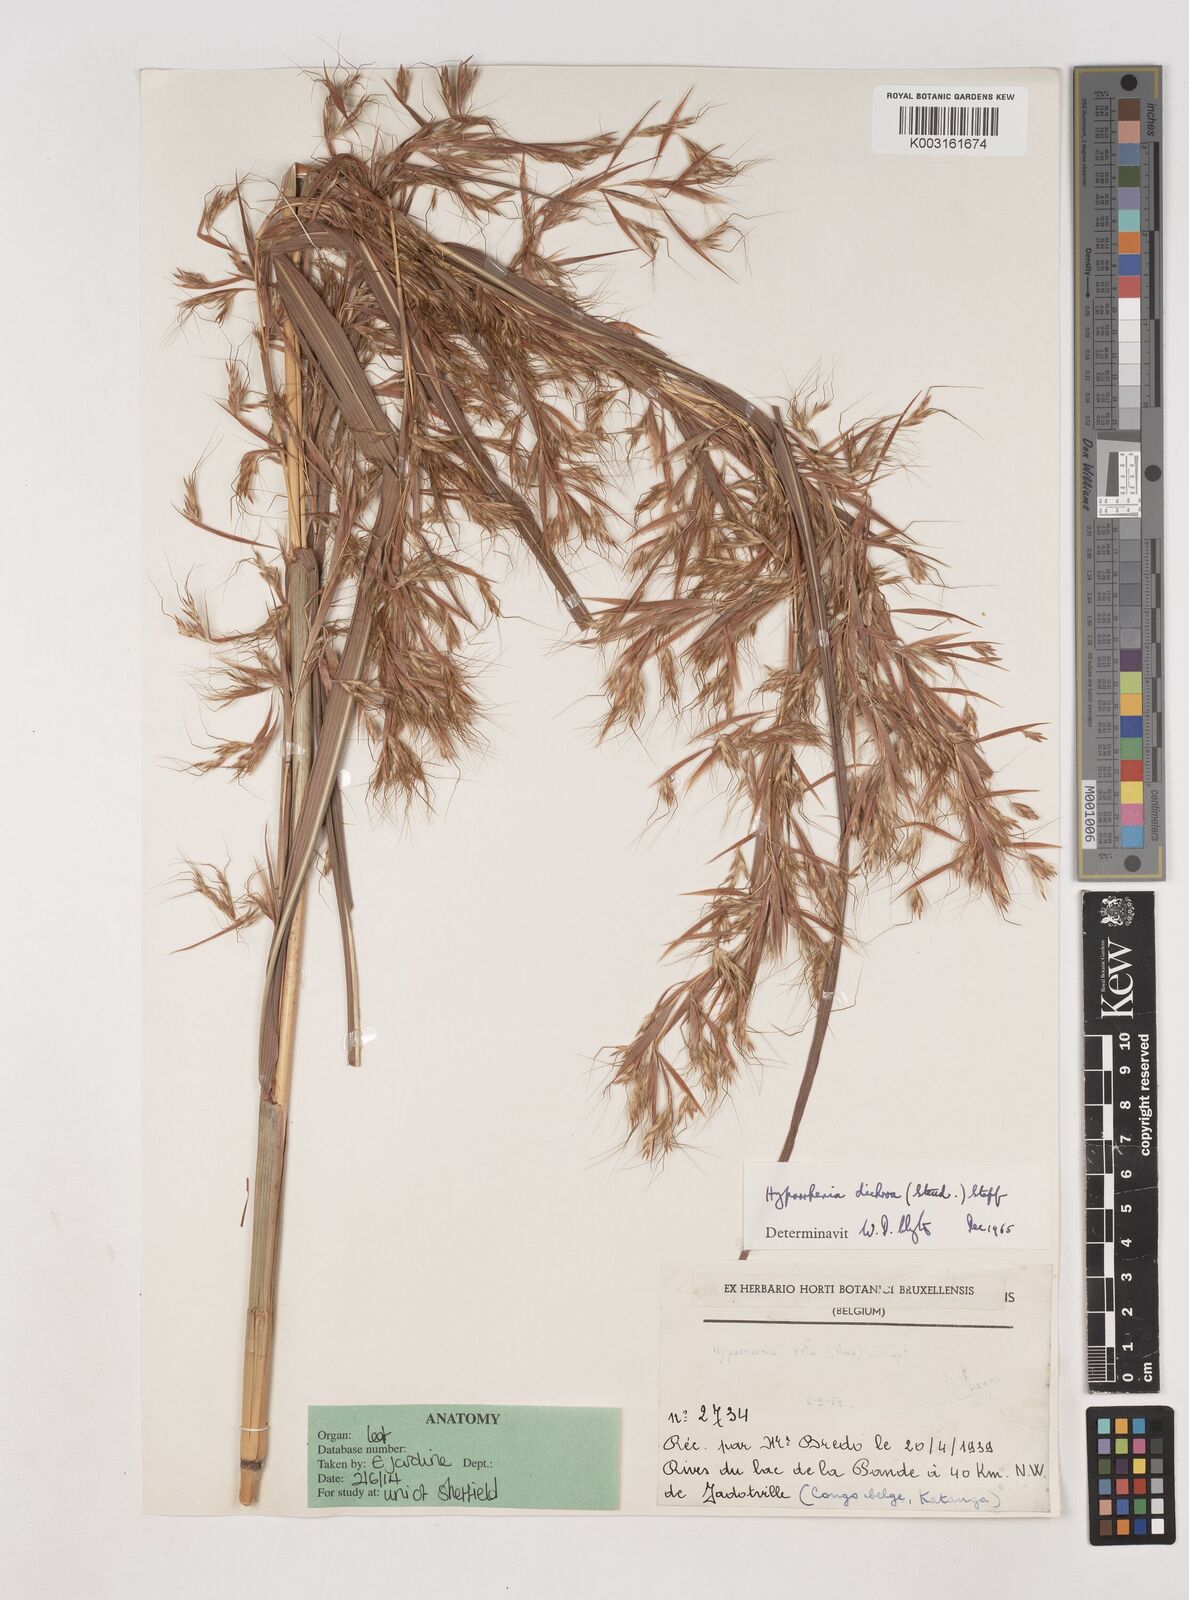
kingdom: Plantae
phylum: Tracheophyta
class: Liliopsida
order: Poales
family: Poaceae
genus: Hyparrhenia
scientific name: Hyparrhenia poecilotricha
